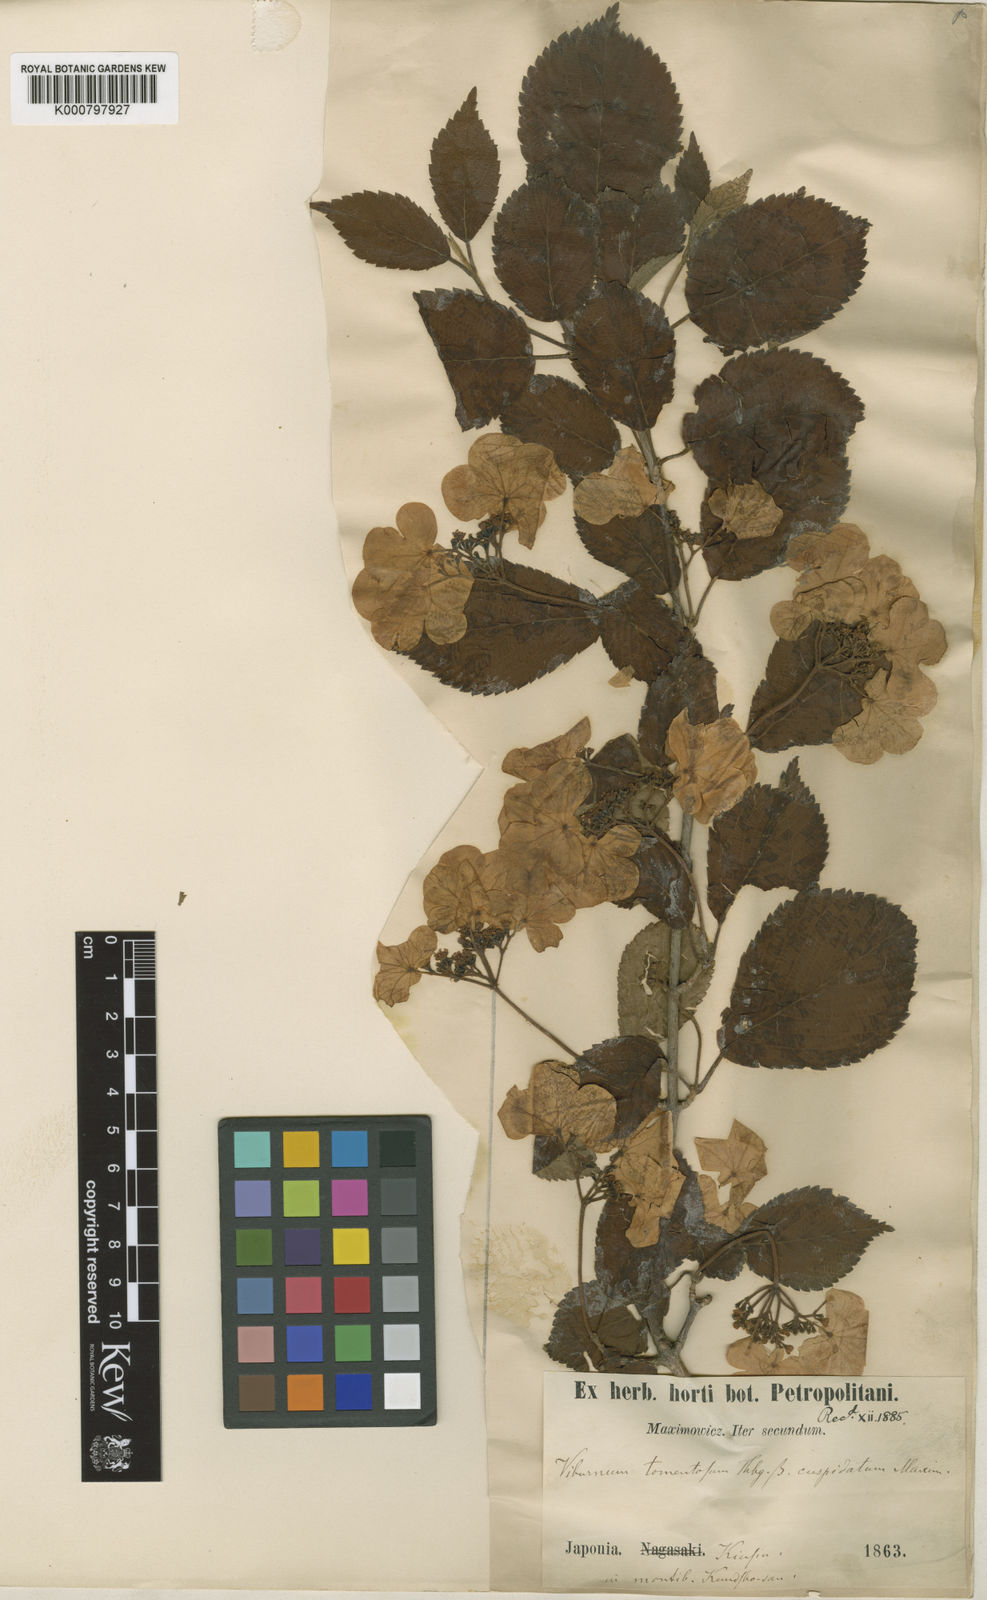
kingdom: Plantae
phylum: Tracheophyta
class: Magnoliopsida
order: Dipsacales
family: Viburnaceae
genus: Viburnum
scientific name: Viburnum lantana
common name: Wayfaring tree
